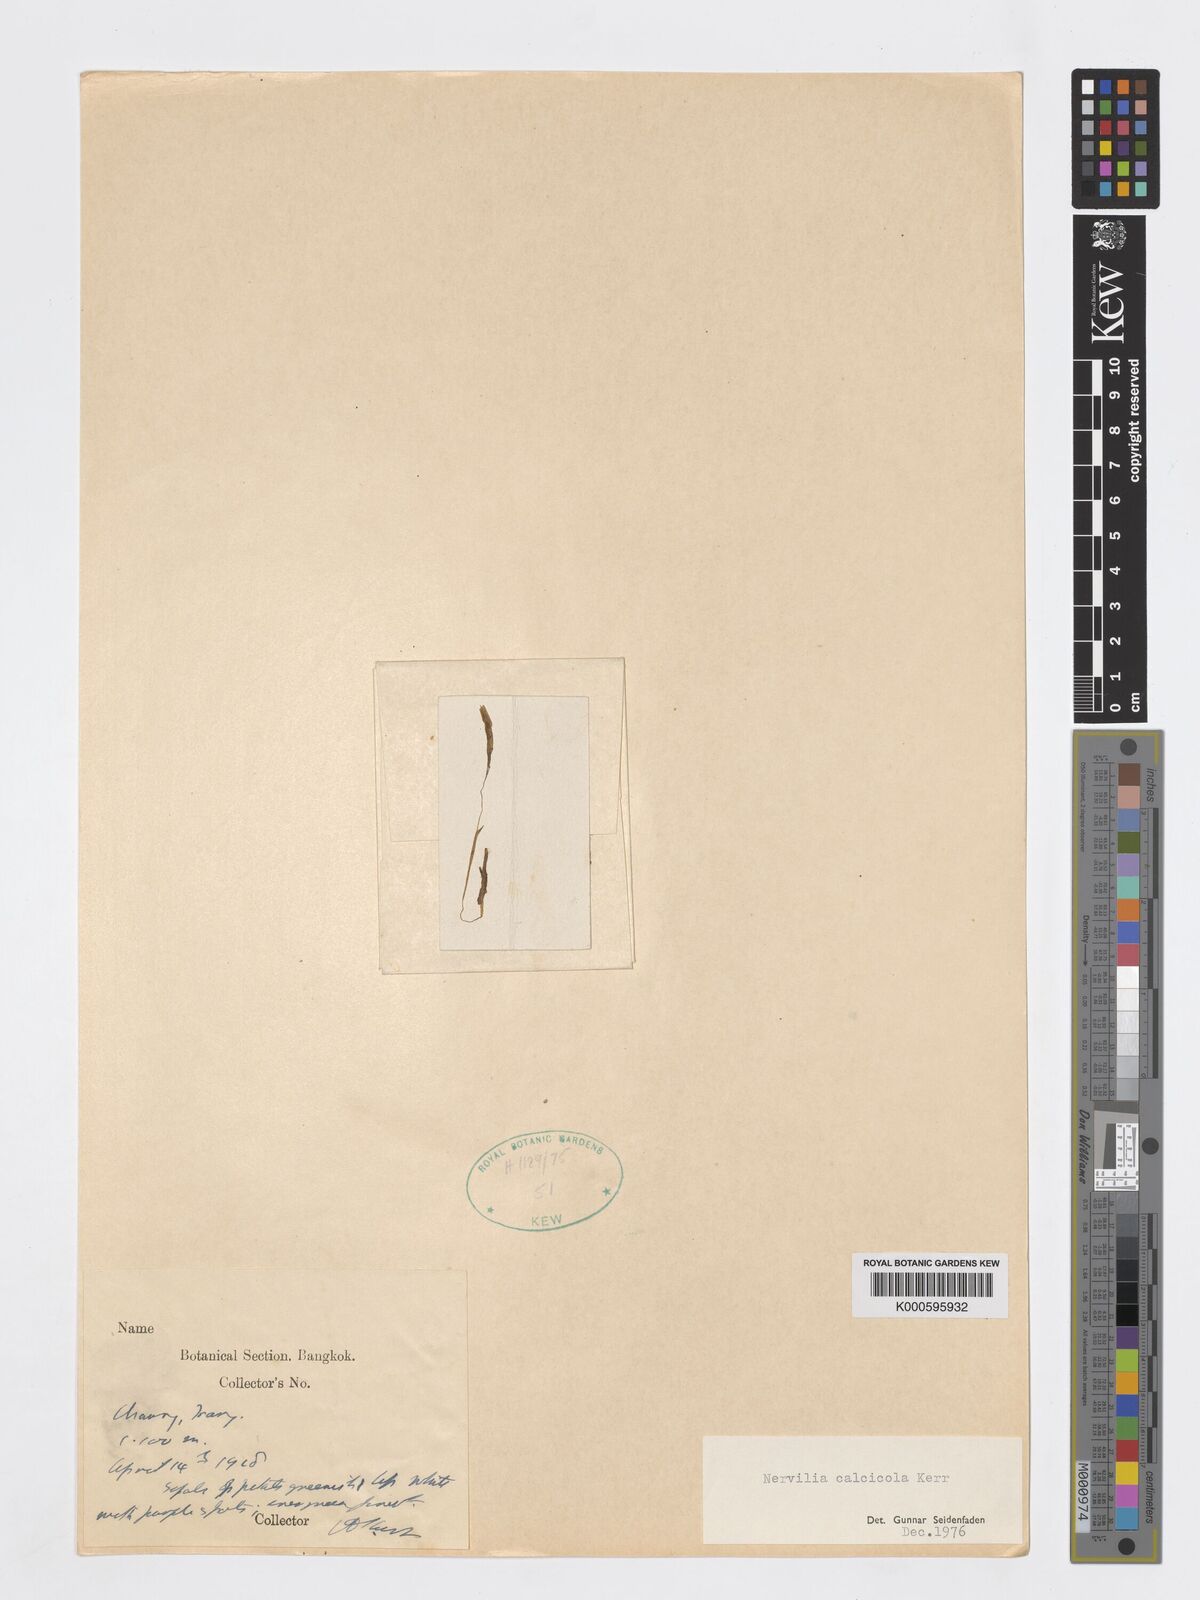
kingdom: Plantae
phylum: Tracheophyta
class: Liliopsida
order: Asparagales
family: Orchidaceae
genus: Nervilia
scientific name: Nervilia infundibulifolia
